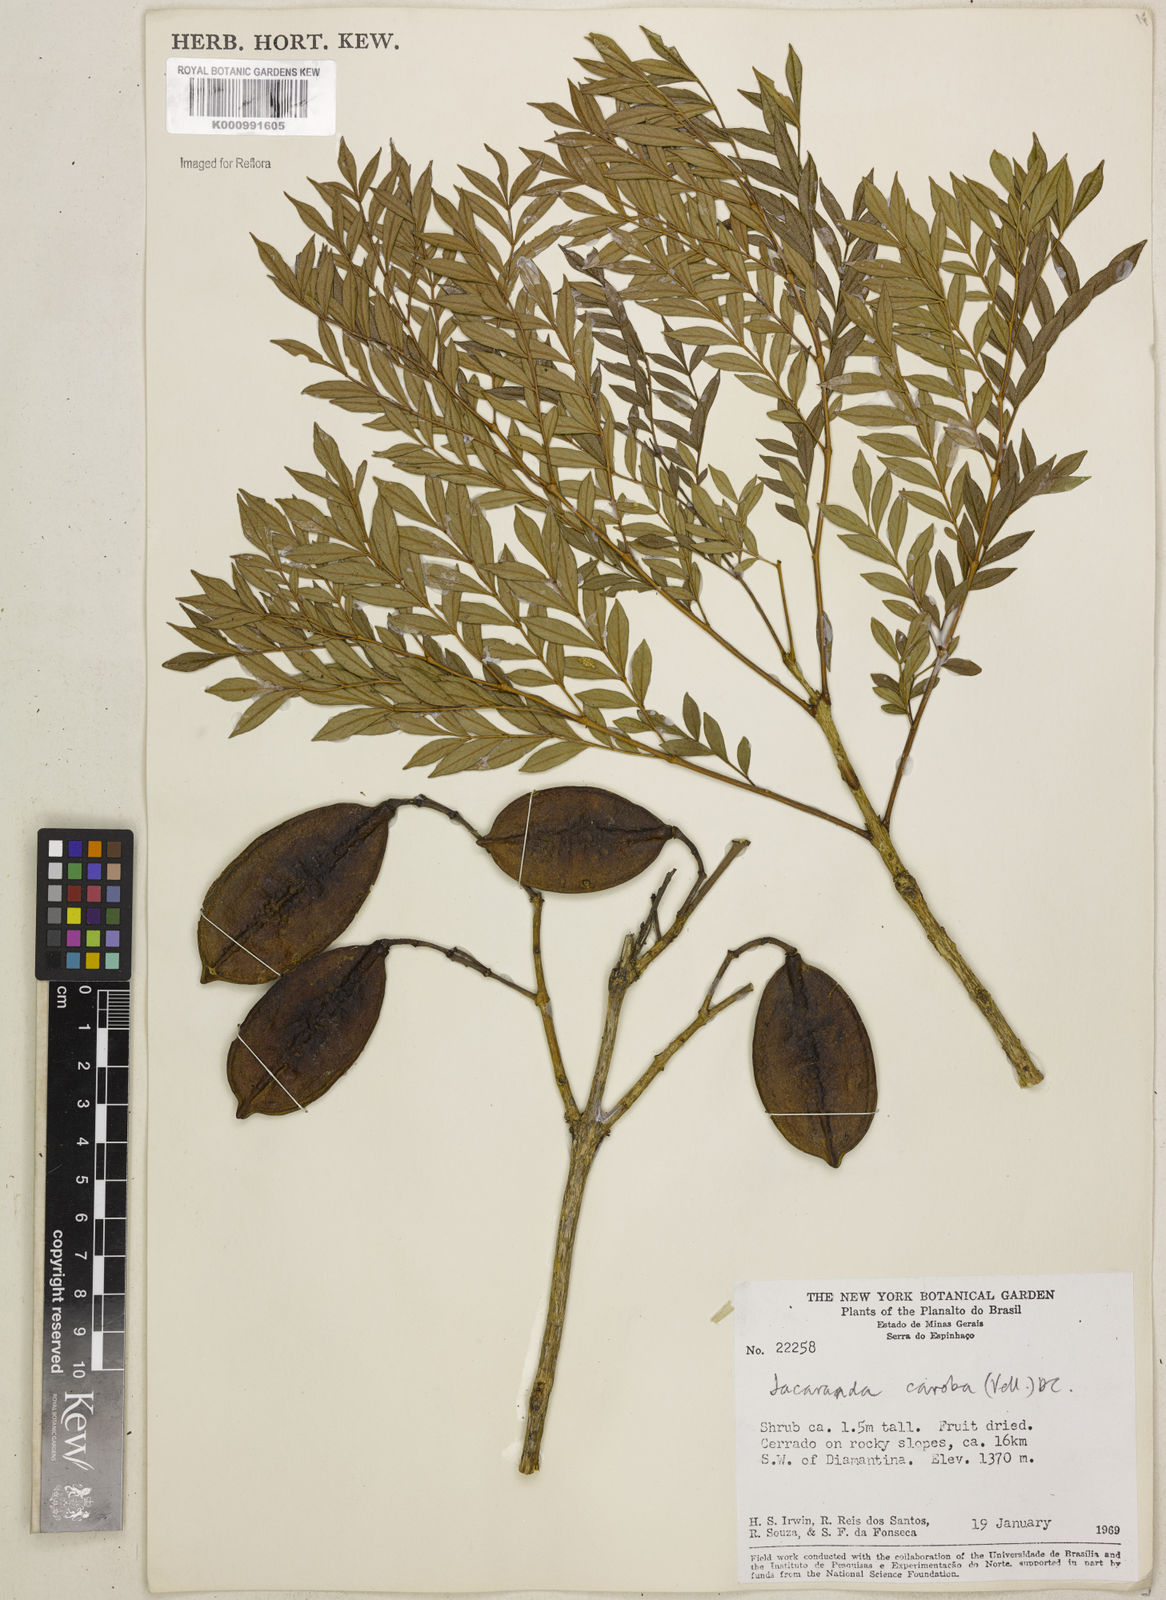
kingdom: Plantae
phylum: Tracheophyta
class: Magnoliopsida
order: Lamiales
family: Bignoniaceae
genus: Jacaranda
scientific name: Jacaranda caroba
